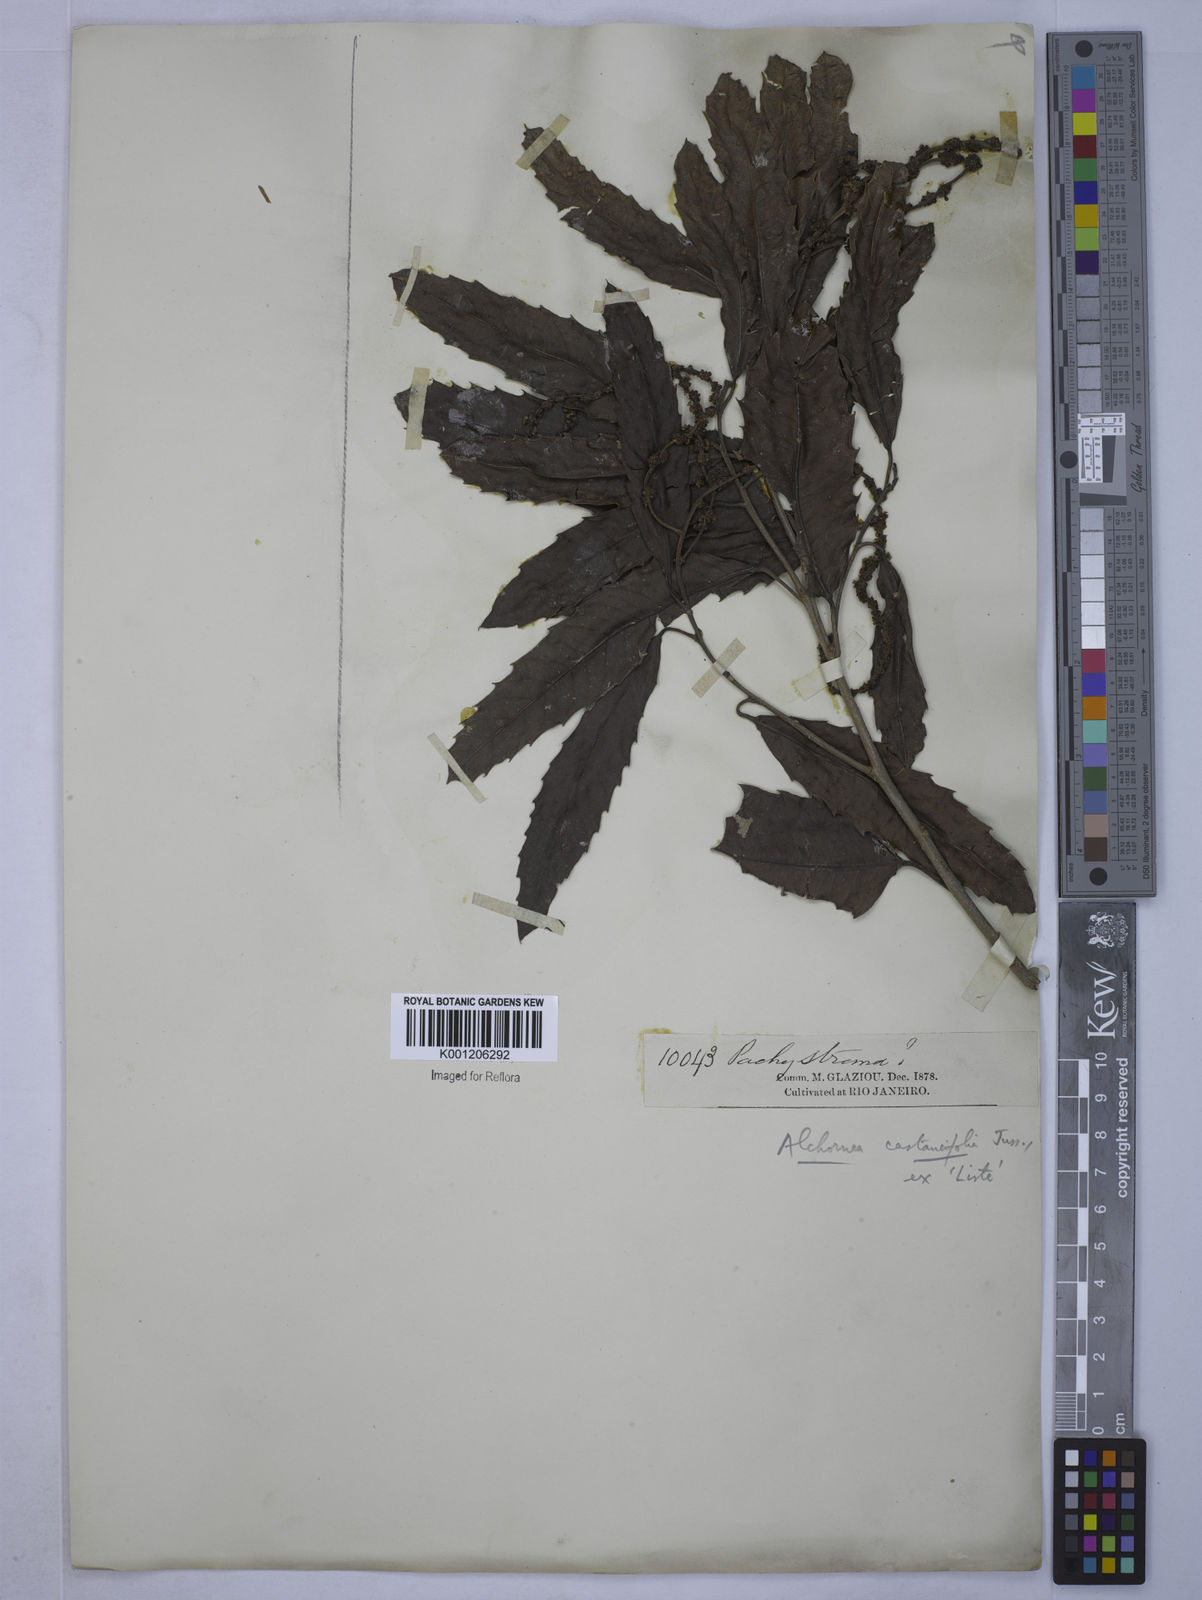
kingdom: Plantae
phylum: Tracheophyta
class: Magnoliopsida
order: Malpighiales
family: Euphorbiaceae
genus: Alchornea
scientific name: Alchornea castaneifolia
